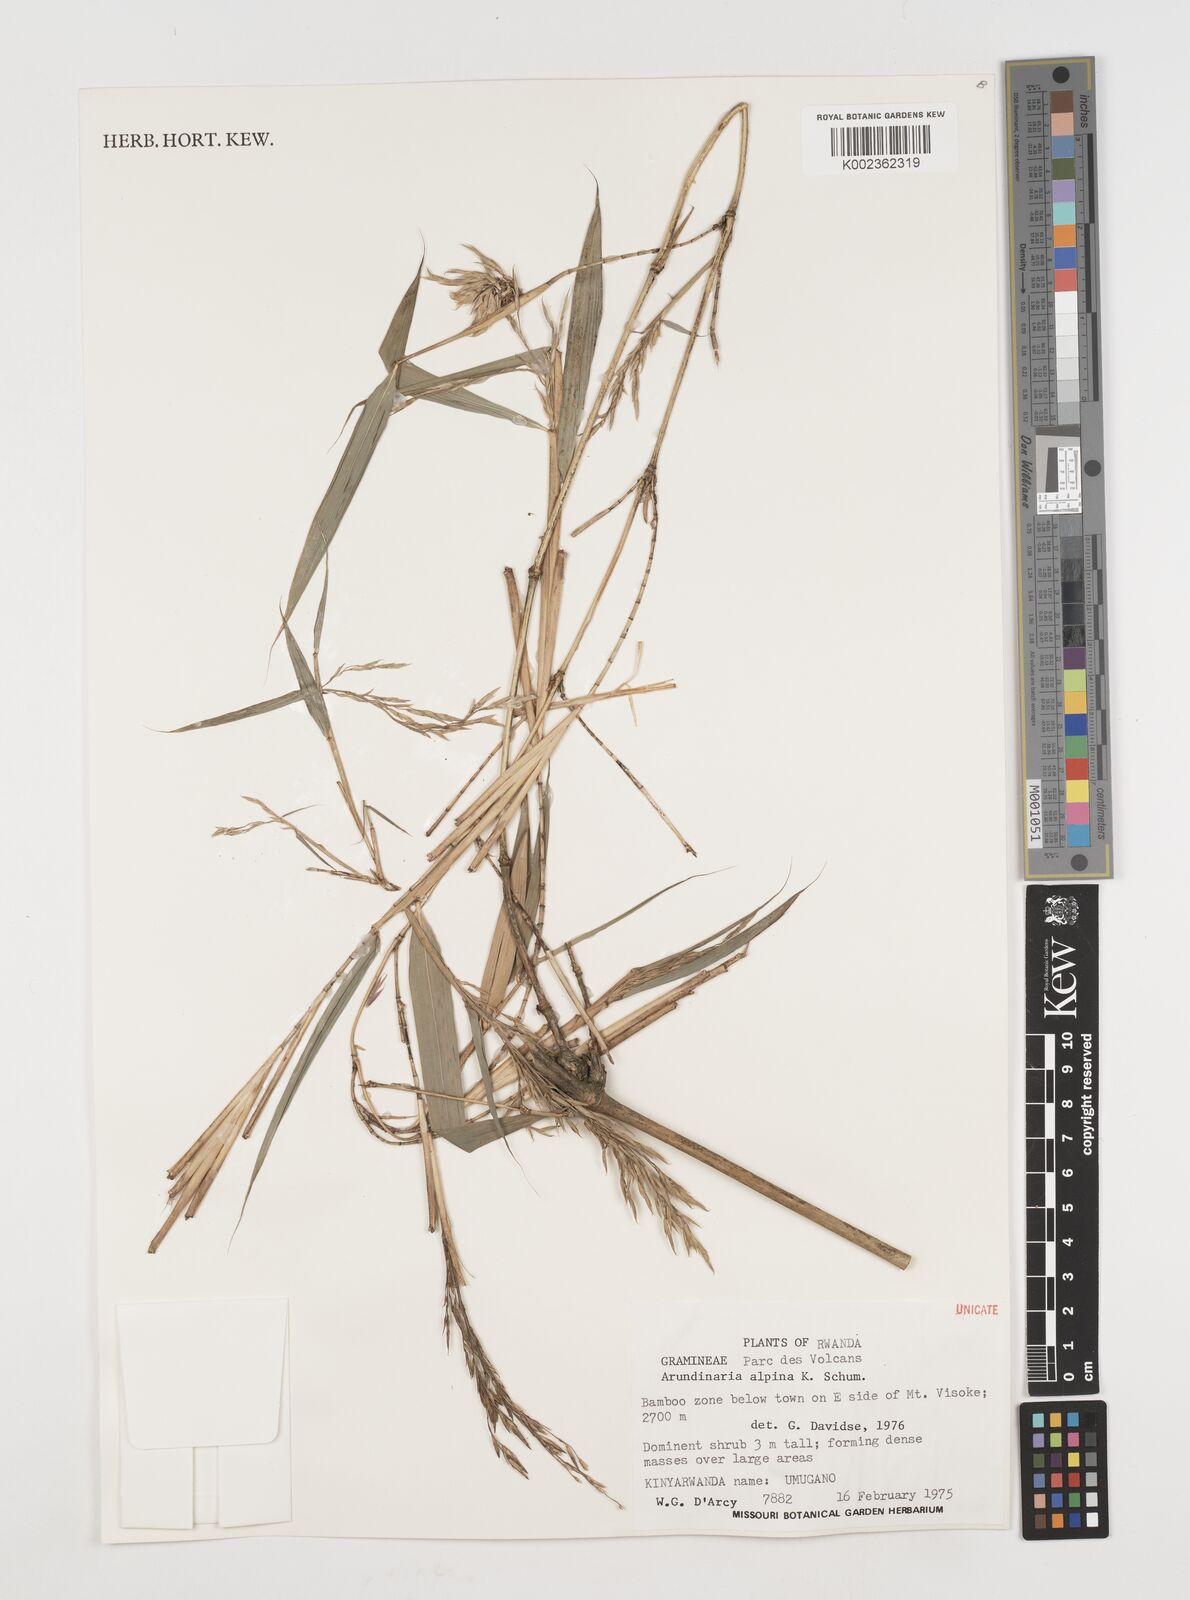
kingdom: Plantae
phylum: Tracheophyta
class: Liliopsida
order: Poales
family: Poaceae
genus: Oldeania
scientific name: Oldeania alpina
